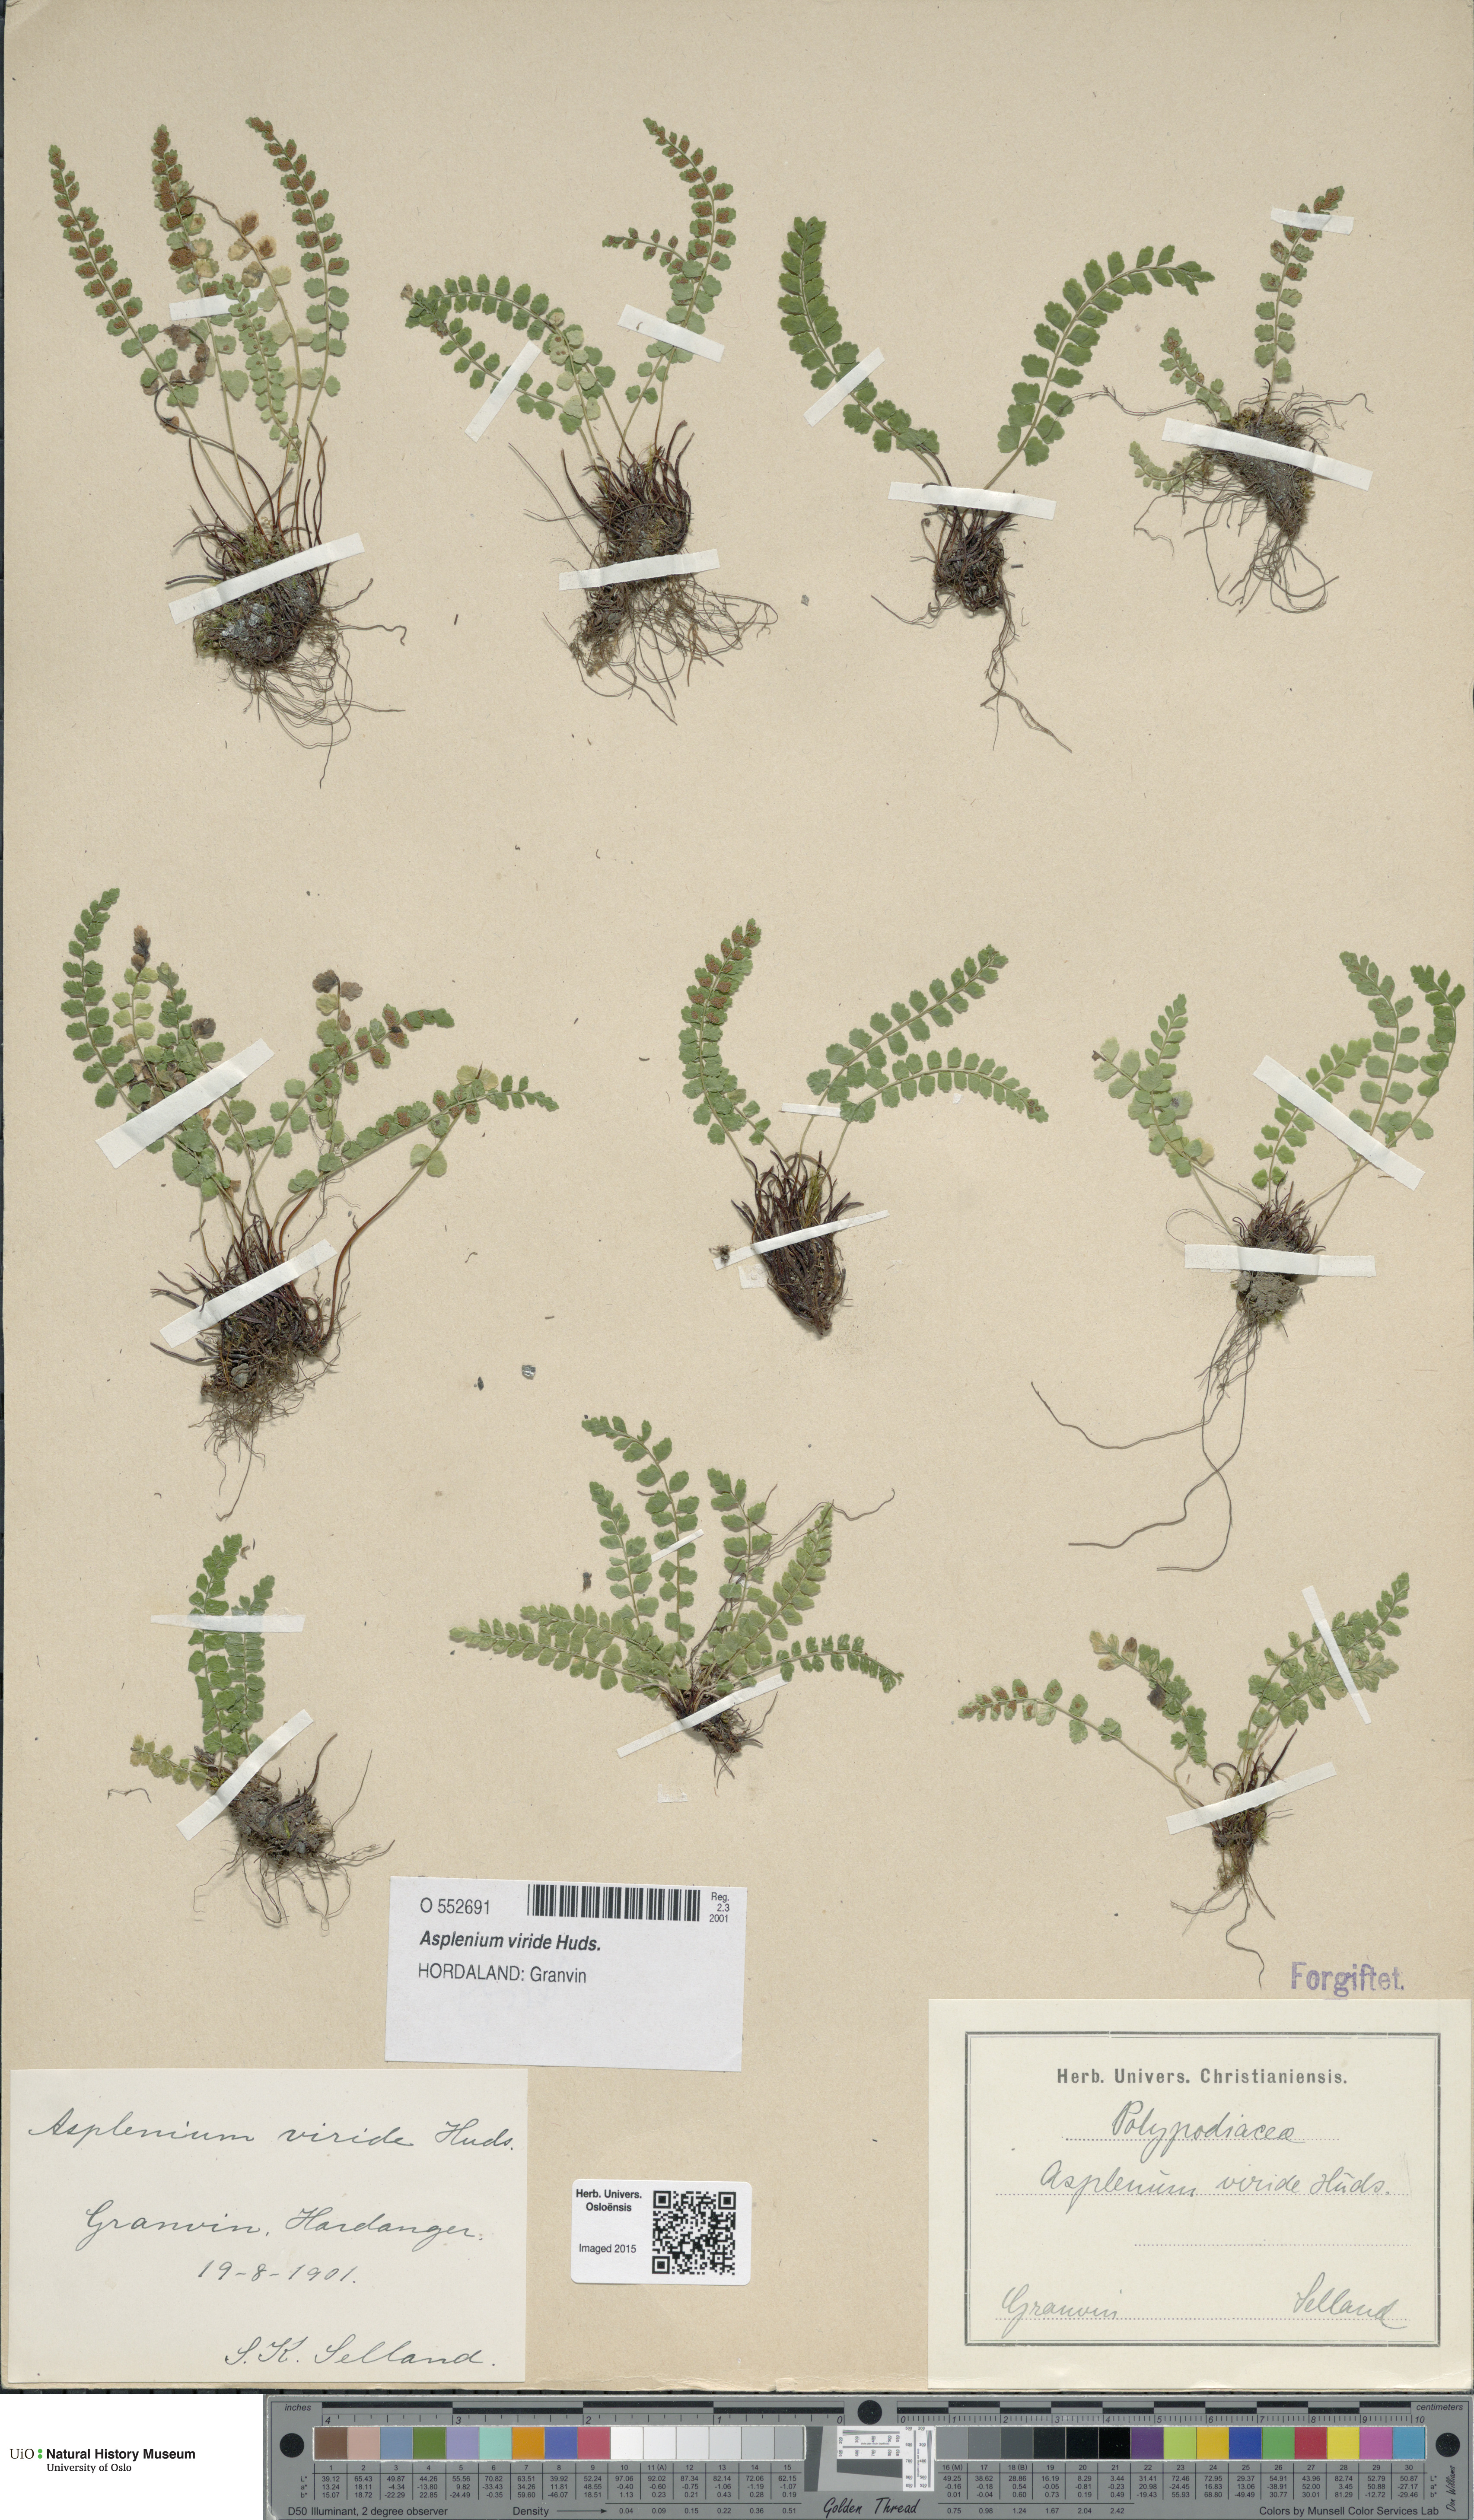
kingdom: Plantae
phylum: Tracheophyta
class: Polypodiopsida
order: Polypodiales
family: Aspleniaceae
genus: Asplenium
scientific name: Asplenium viride
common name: Green spleenwort
